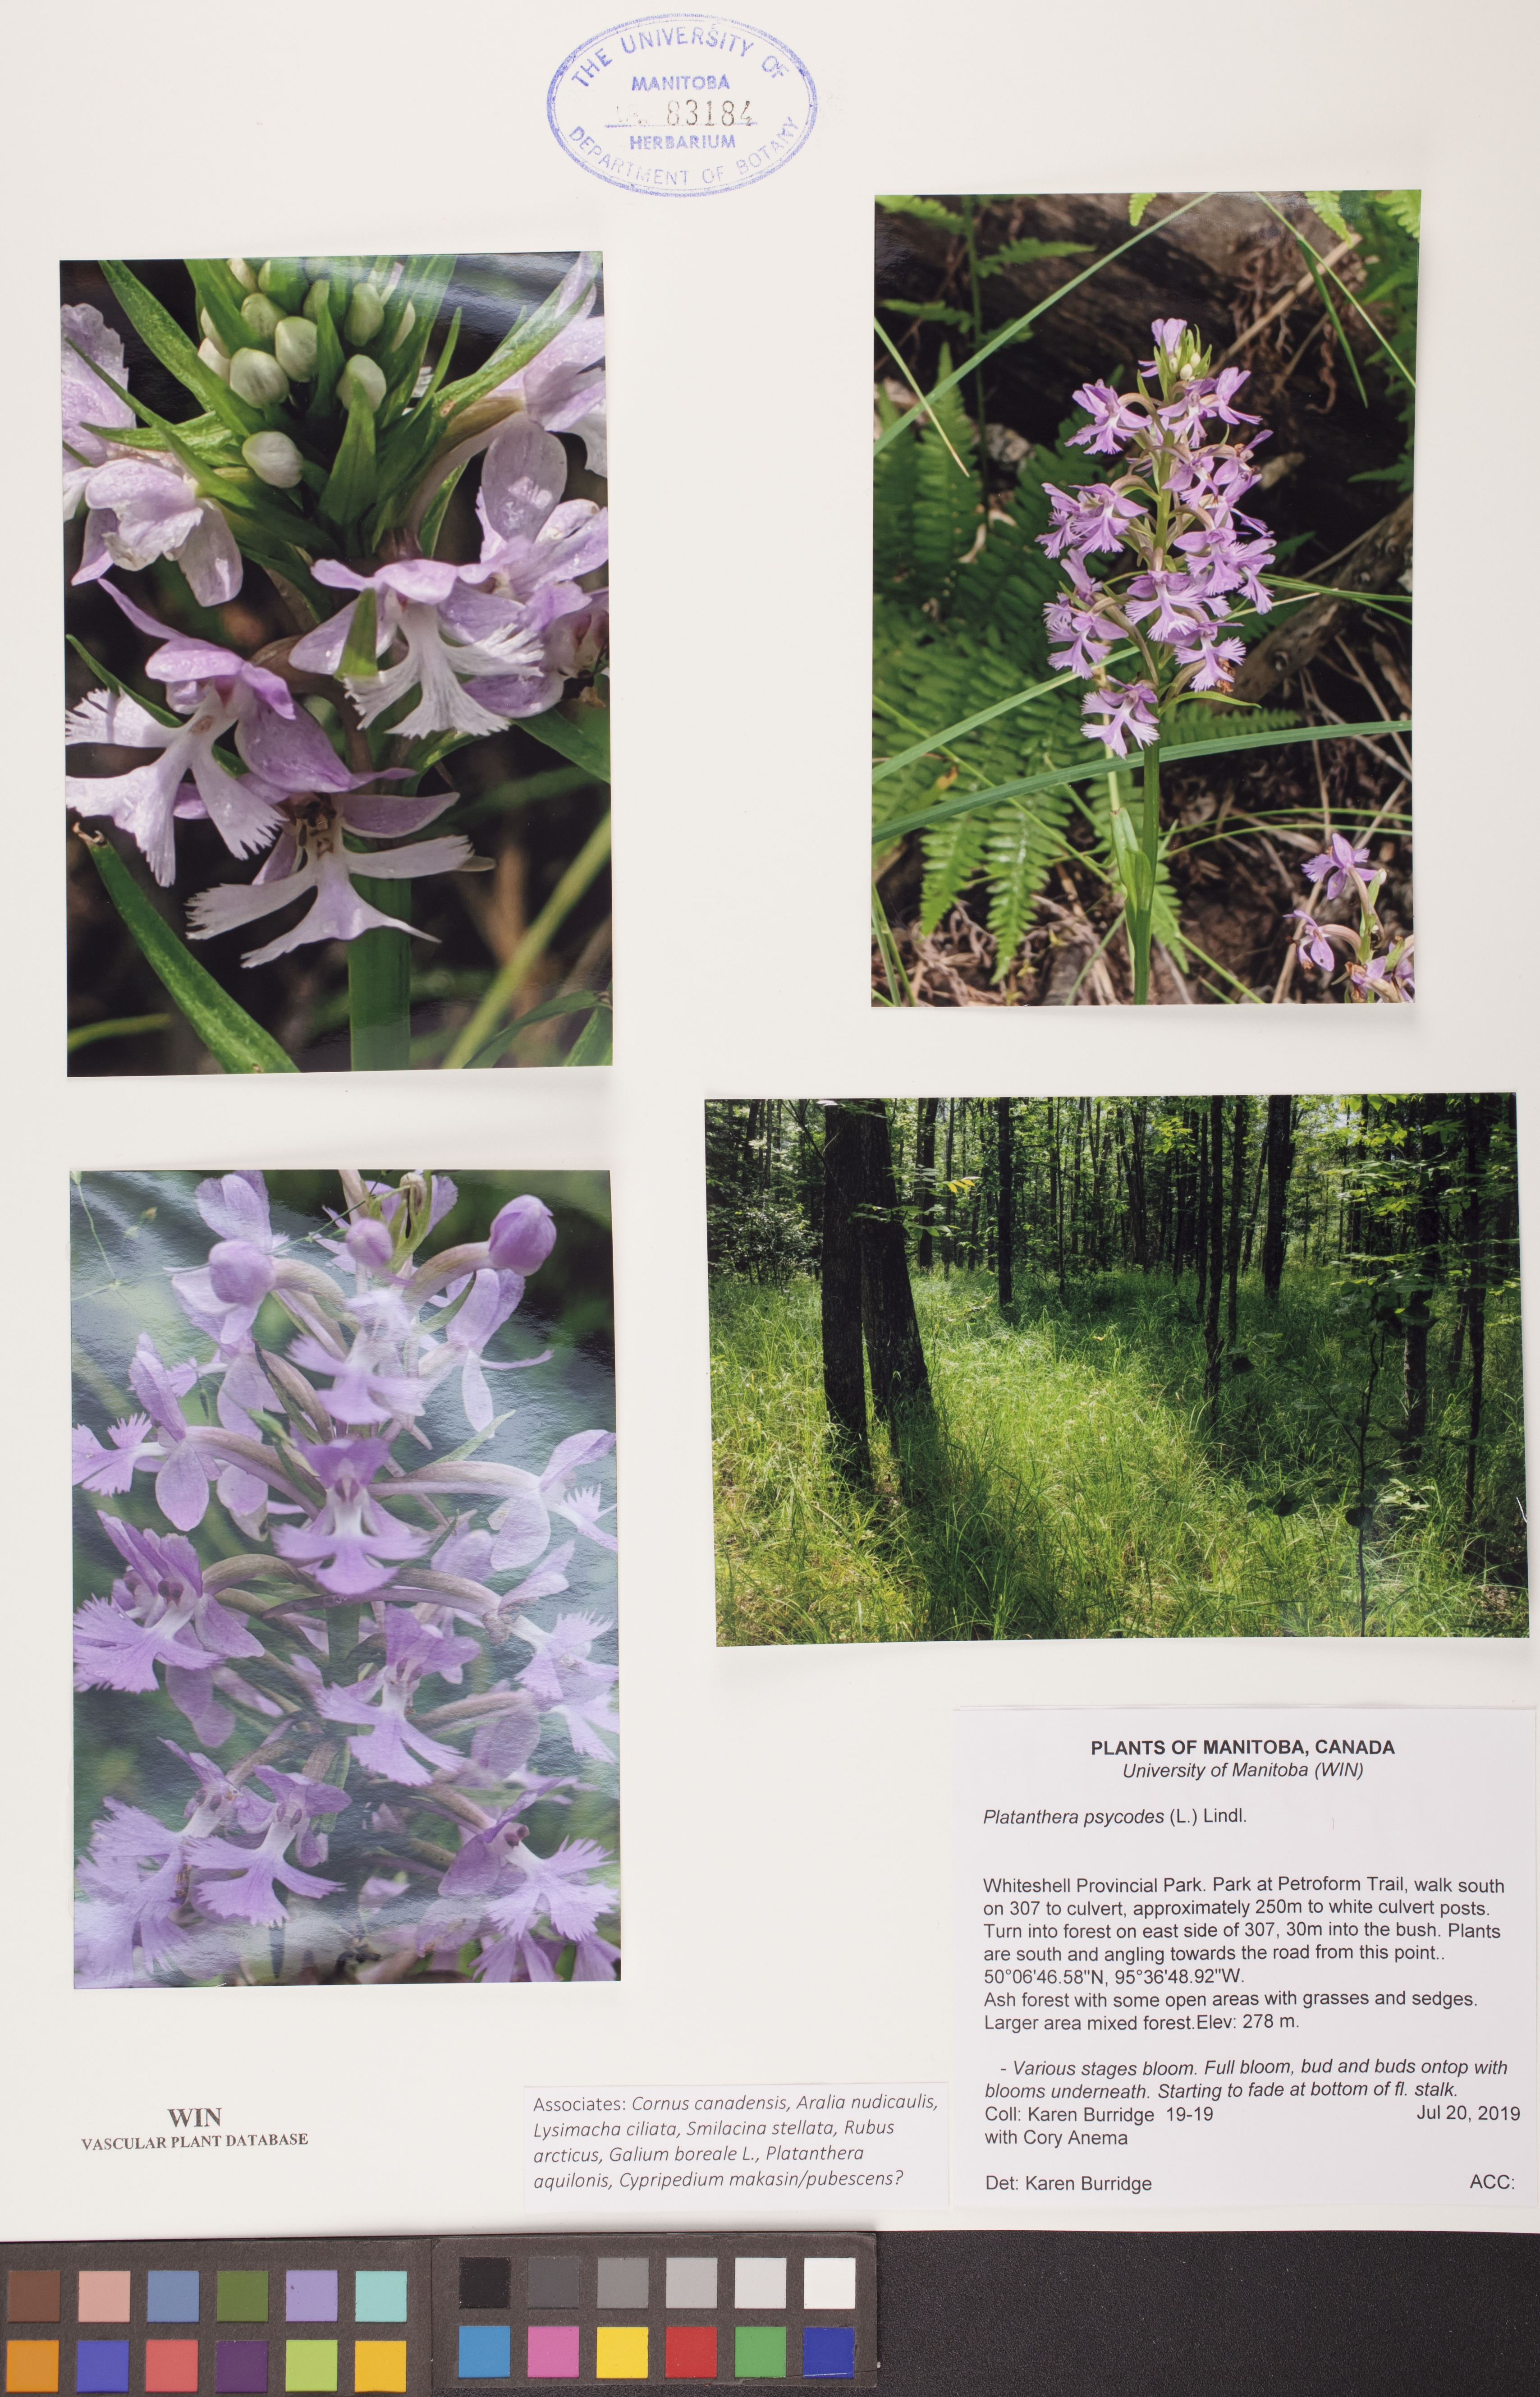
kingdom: Plantae
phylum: Tracheophyta
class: Liliopsida
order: Asparagales
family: Orchidaceae
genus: Platanthera
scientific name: Platanthera psycodes
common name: Lesser purple fringed orchid
